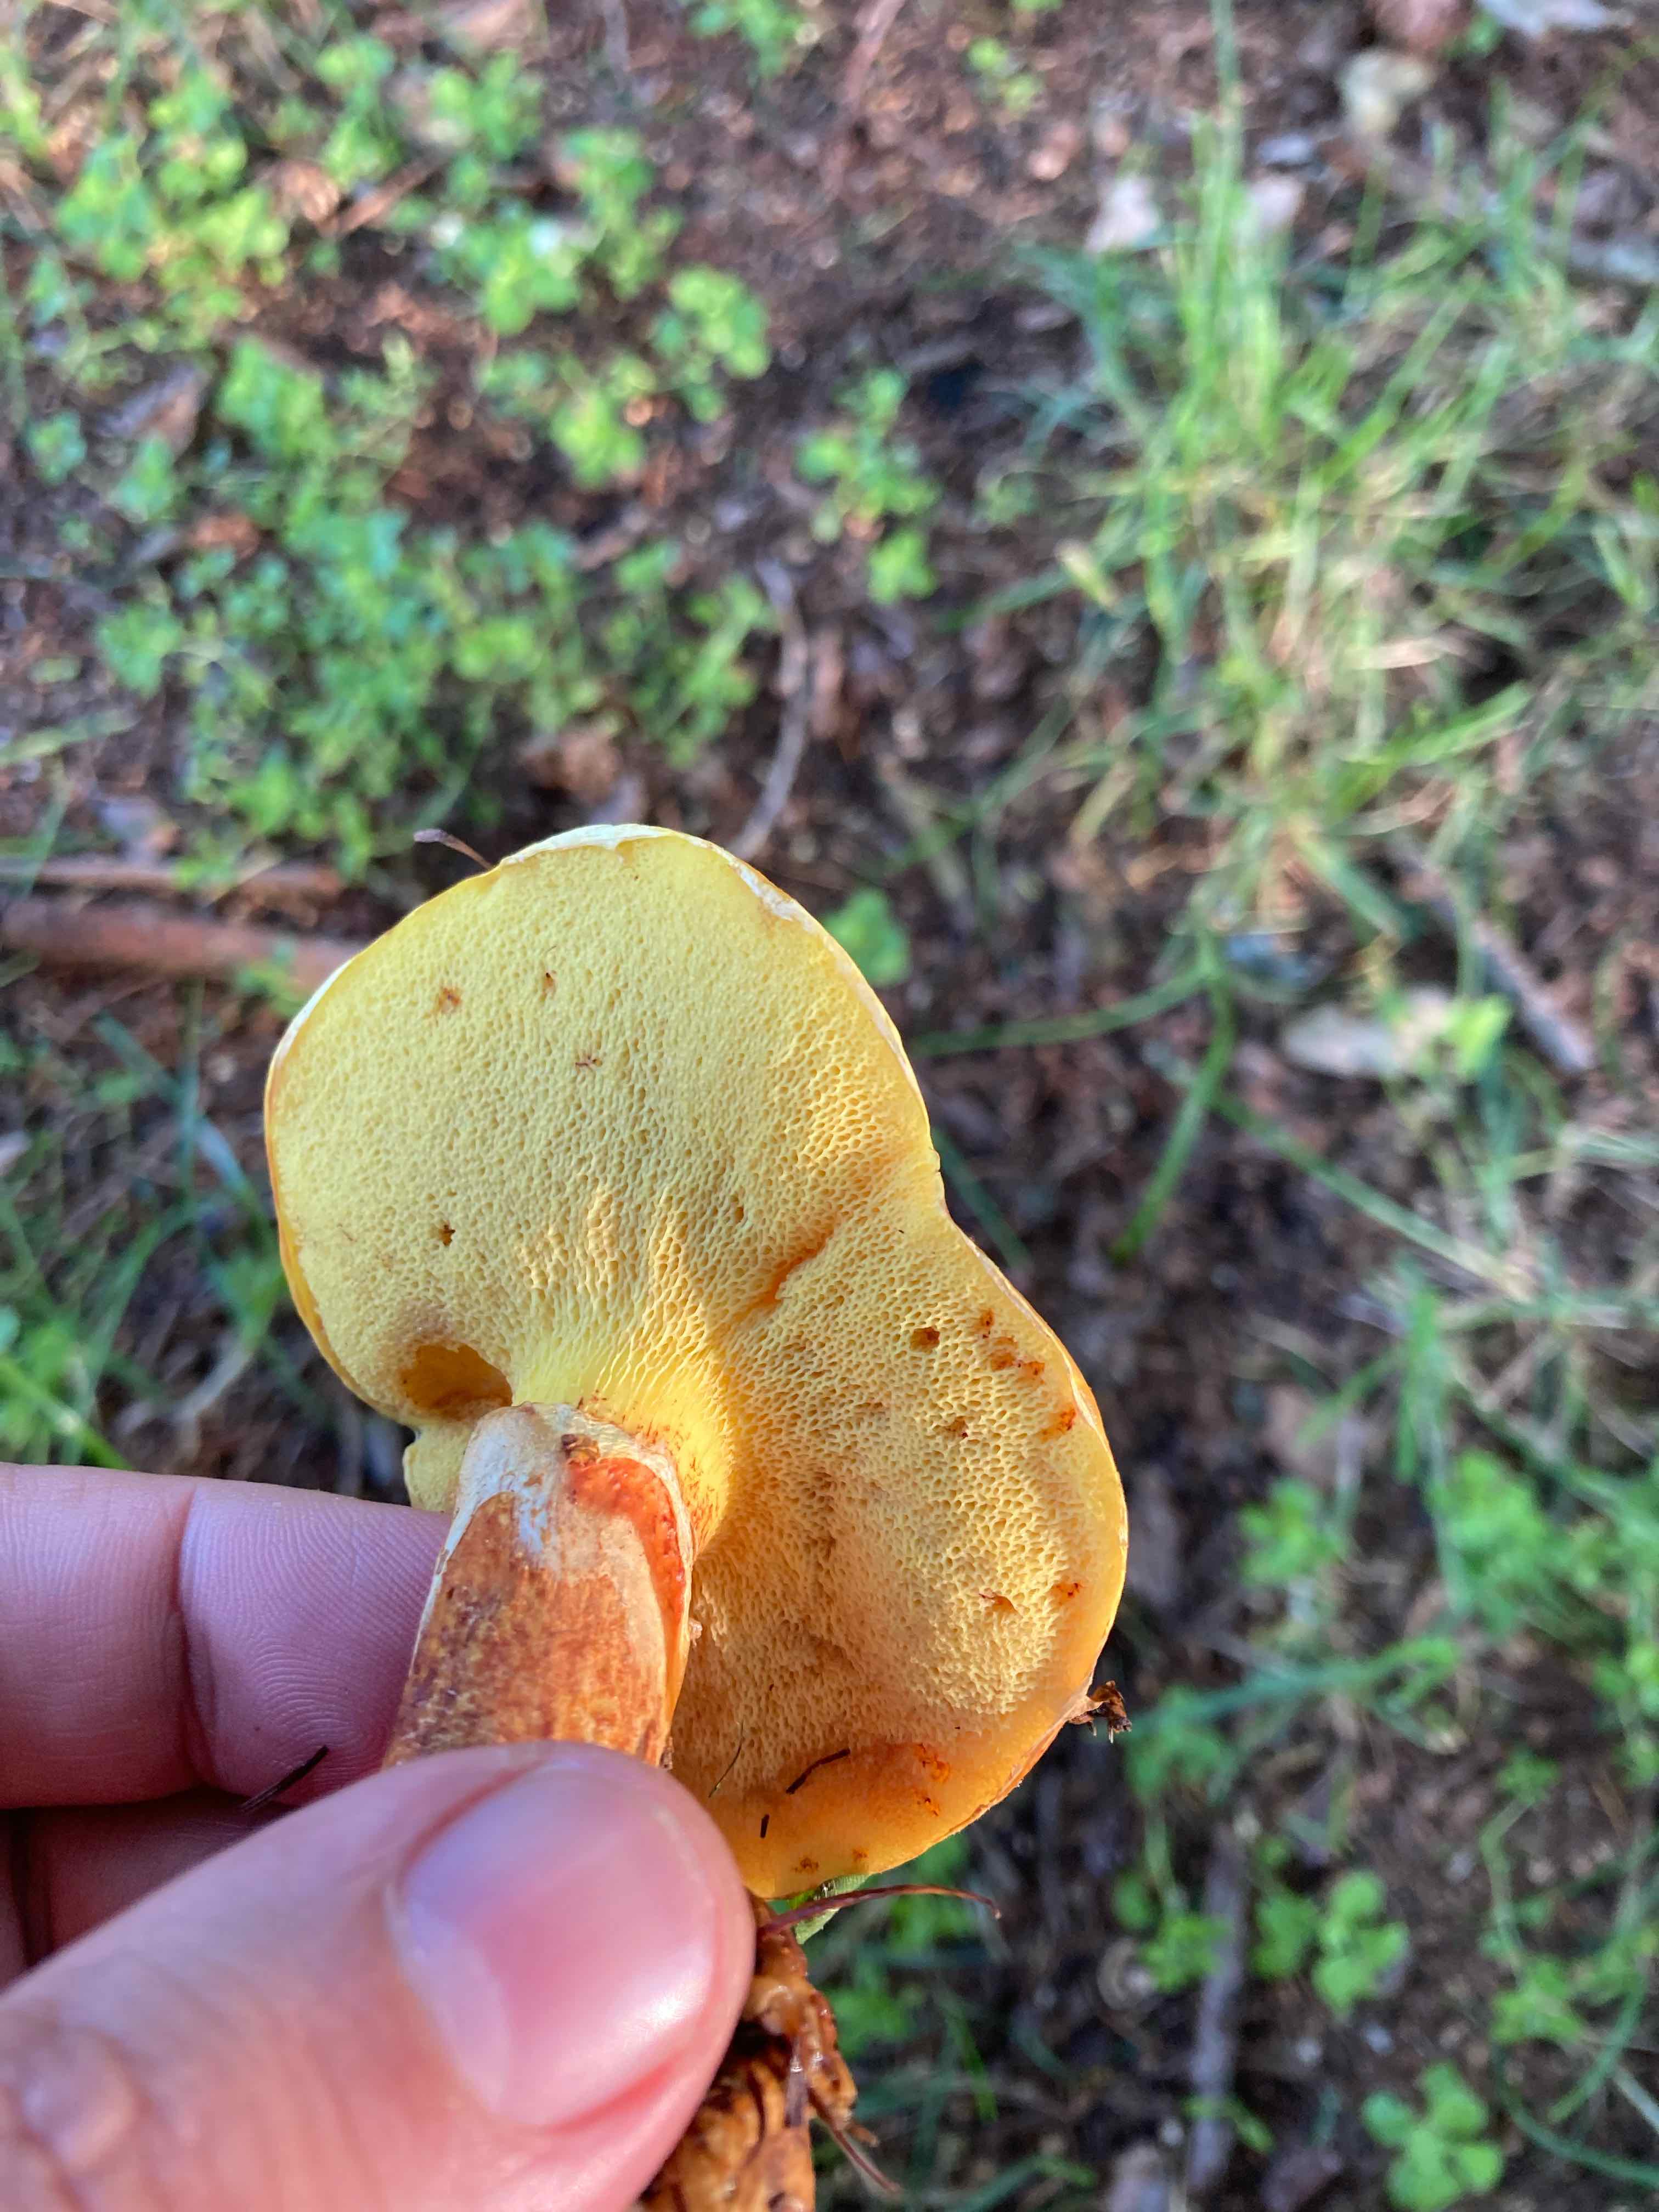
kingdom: Fungi
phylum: Basidiomycota
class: Agaricomycetes
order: Boletales
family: Suillaceae
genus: Suillus
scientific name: Suillus grevillei
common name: lærke-slimrørhat
